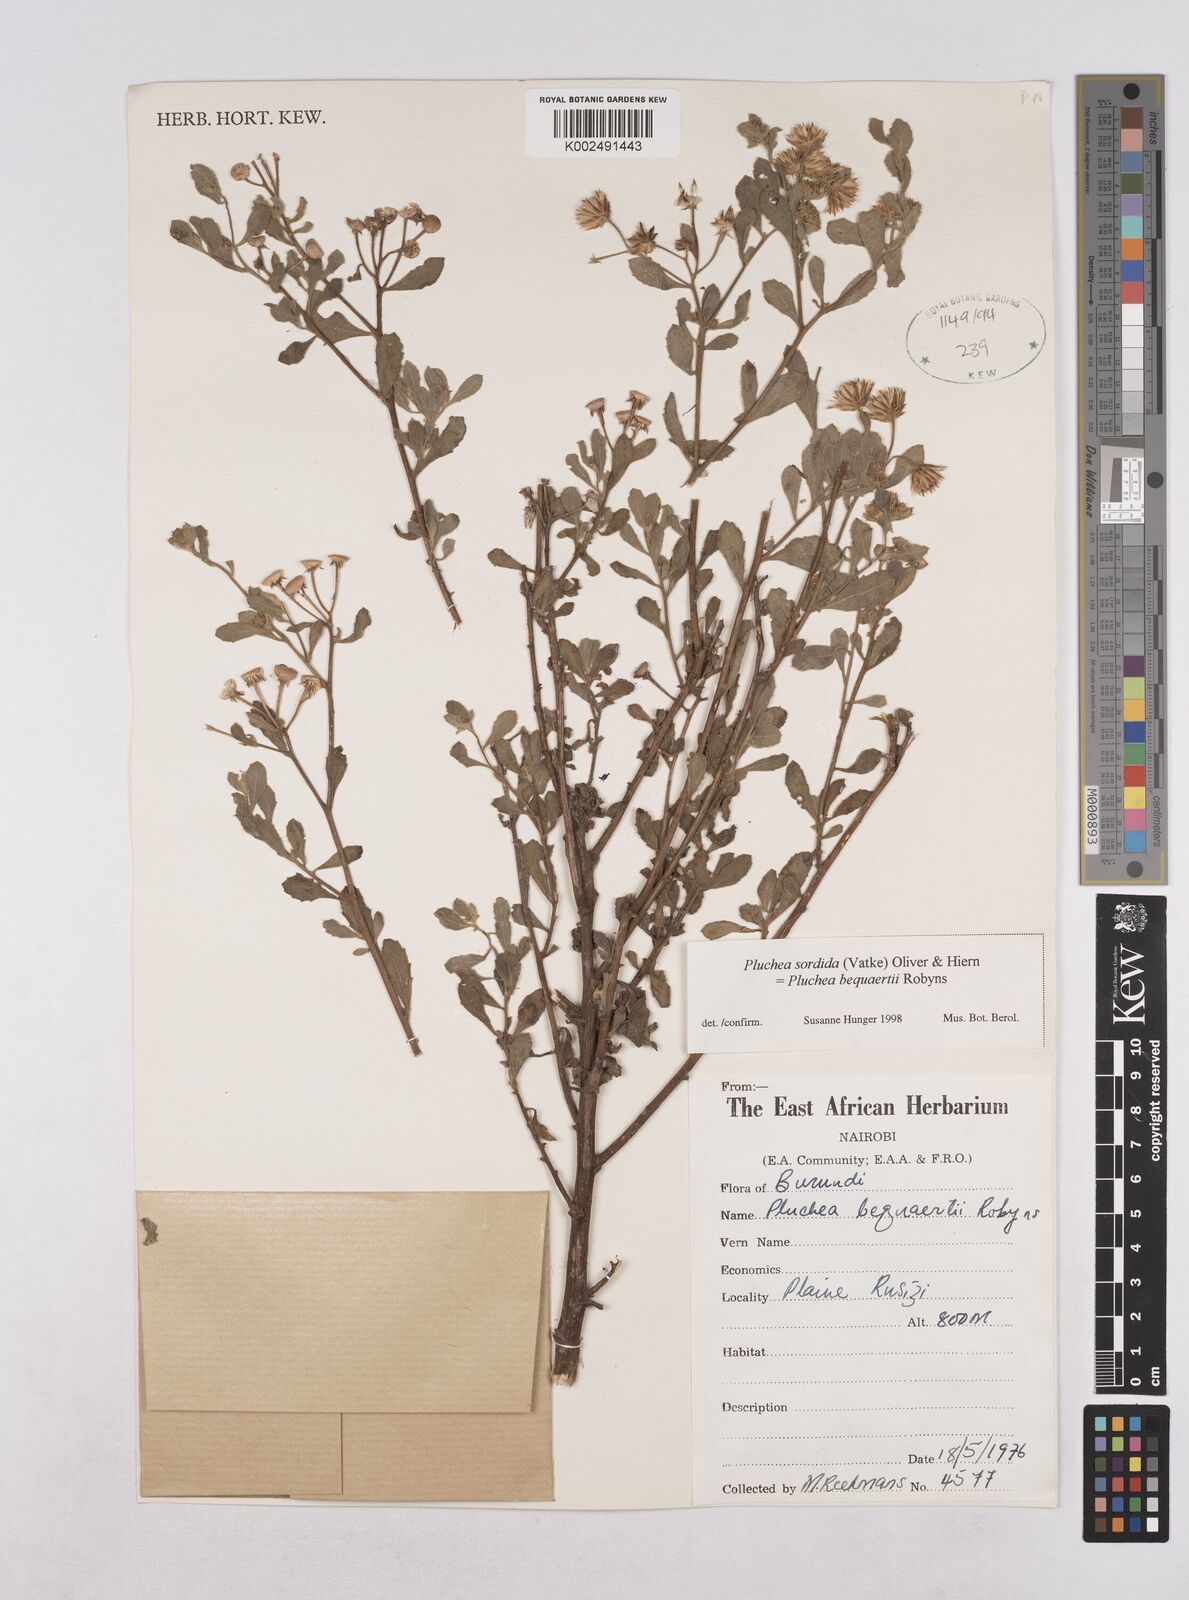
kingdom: Plantae
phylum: Tracheophyta
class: Magnoliopsida
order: Asterales
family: Asteraceae
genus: Pluchea
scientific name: Pluchea sordida
